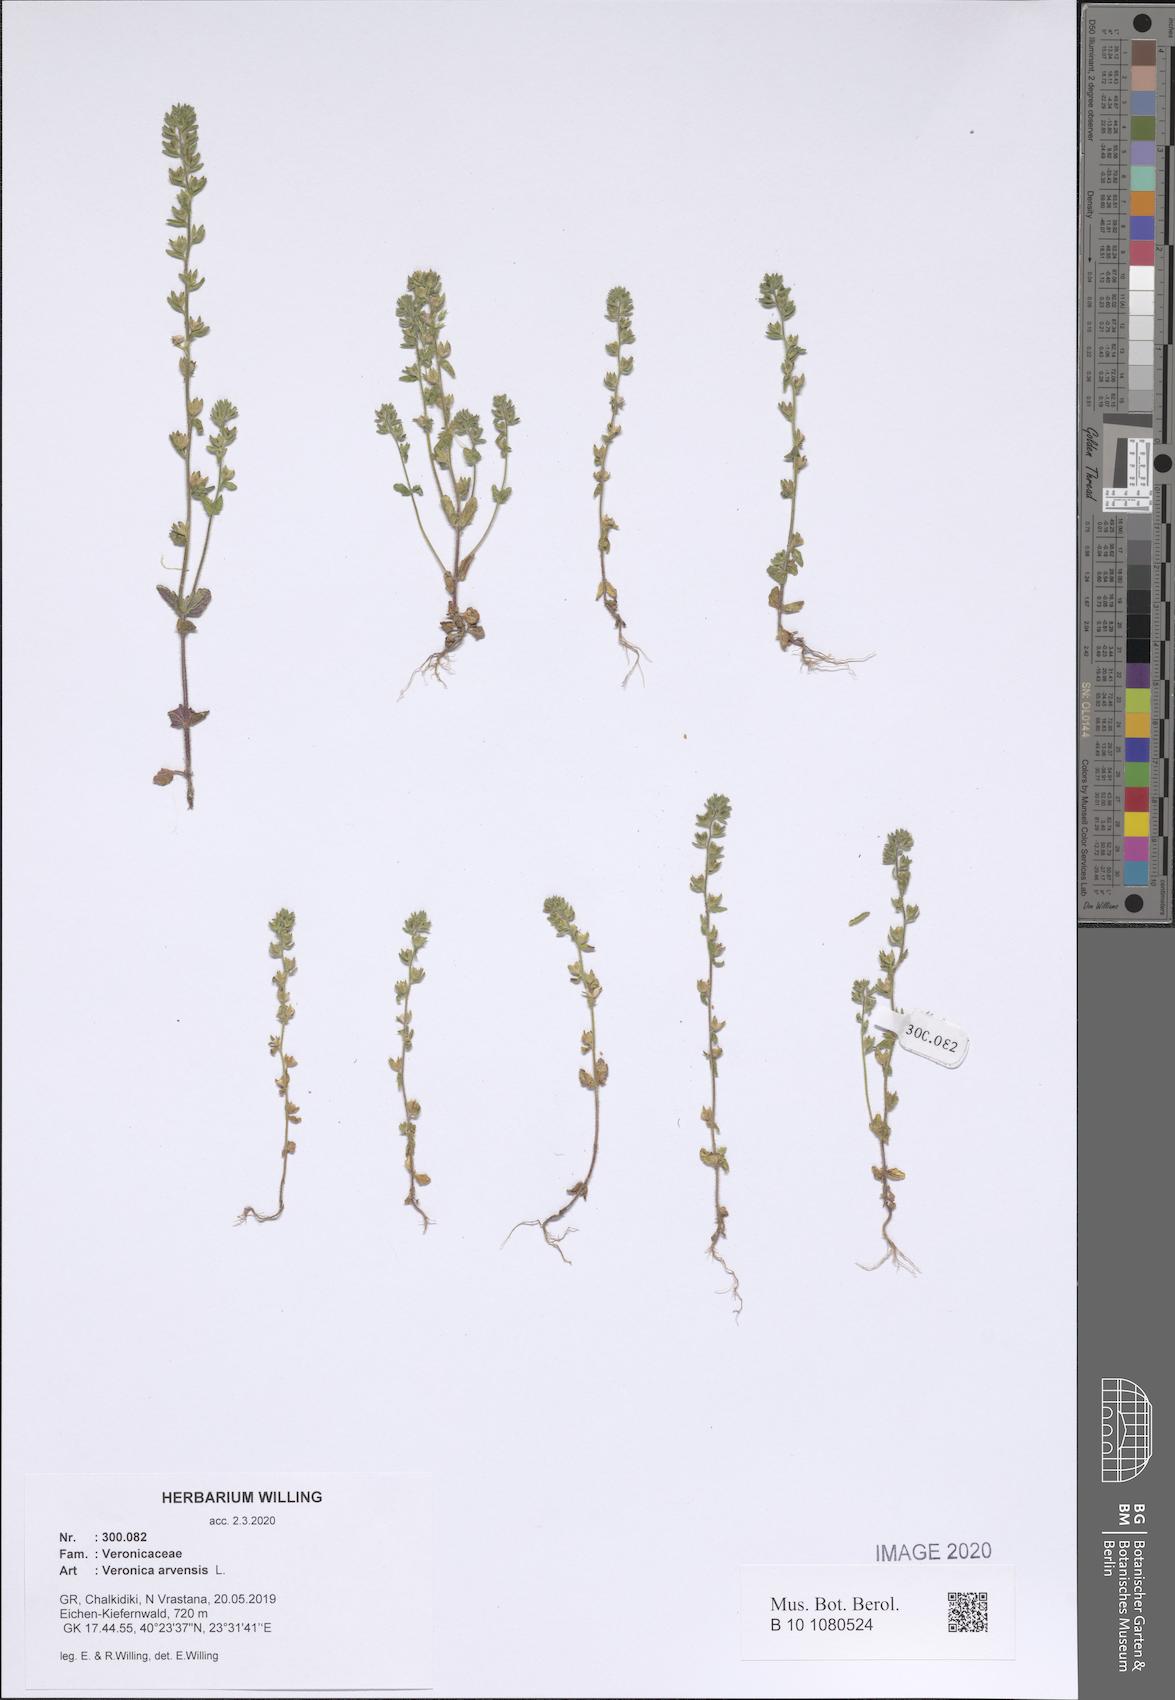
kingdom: Plantae
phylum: Tracheophyta
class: Magnoliopsida
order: Lamiales
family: Plantaginaceae
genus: Veronica
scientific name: Veronica arvensis
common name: Corn speedwell
